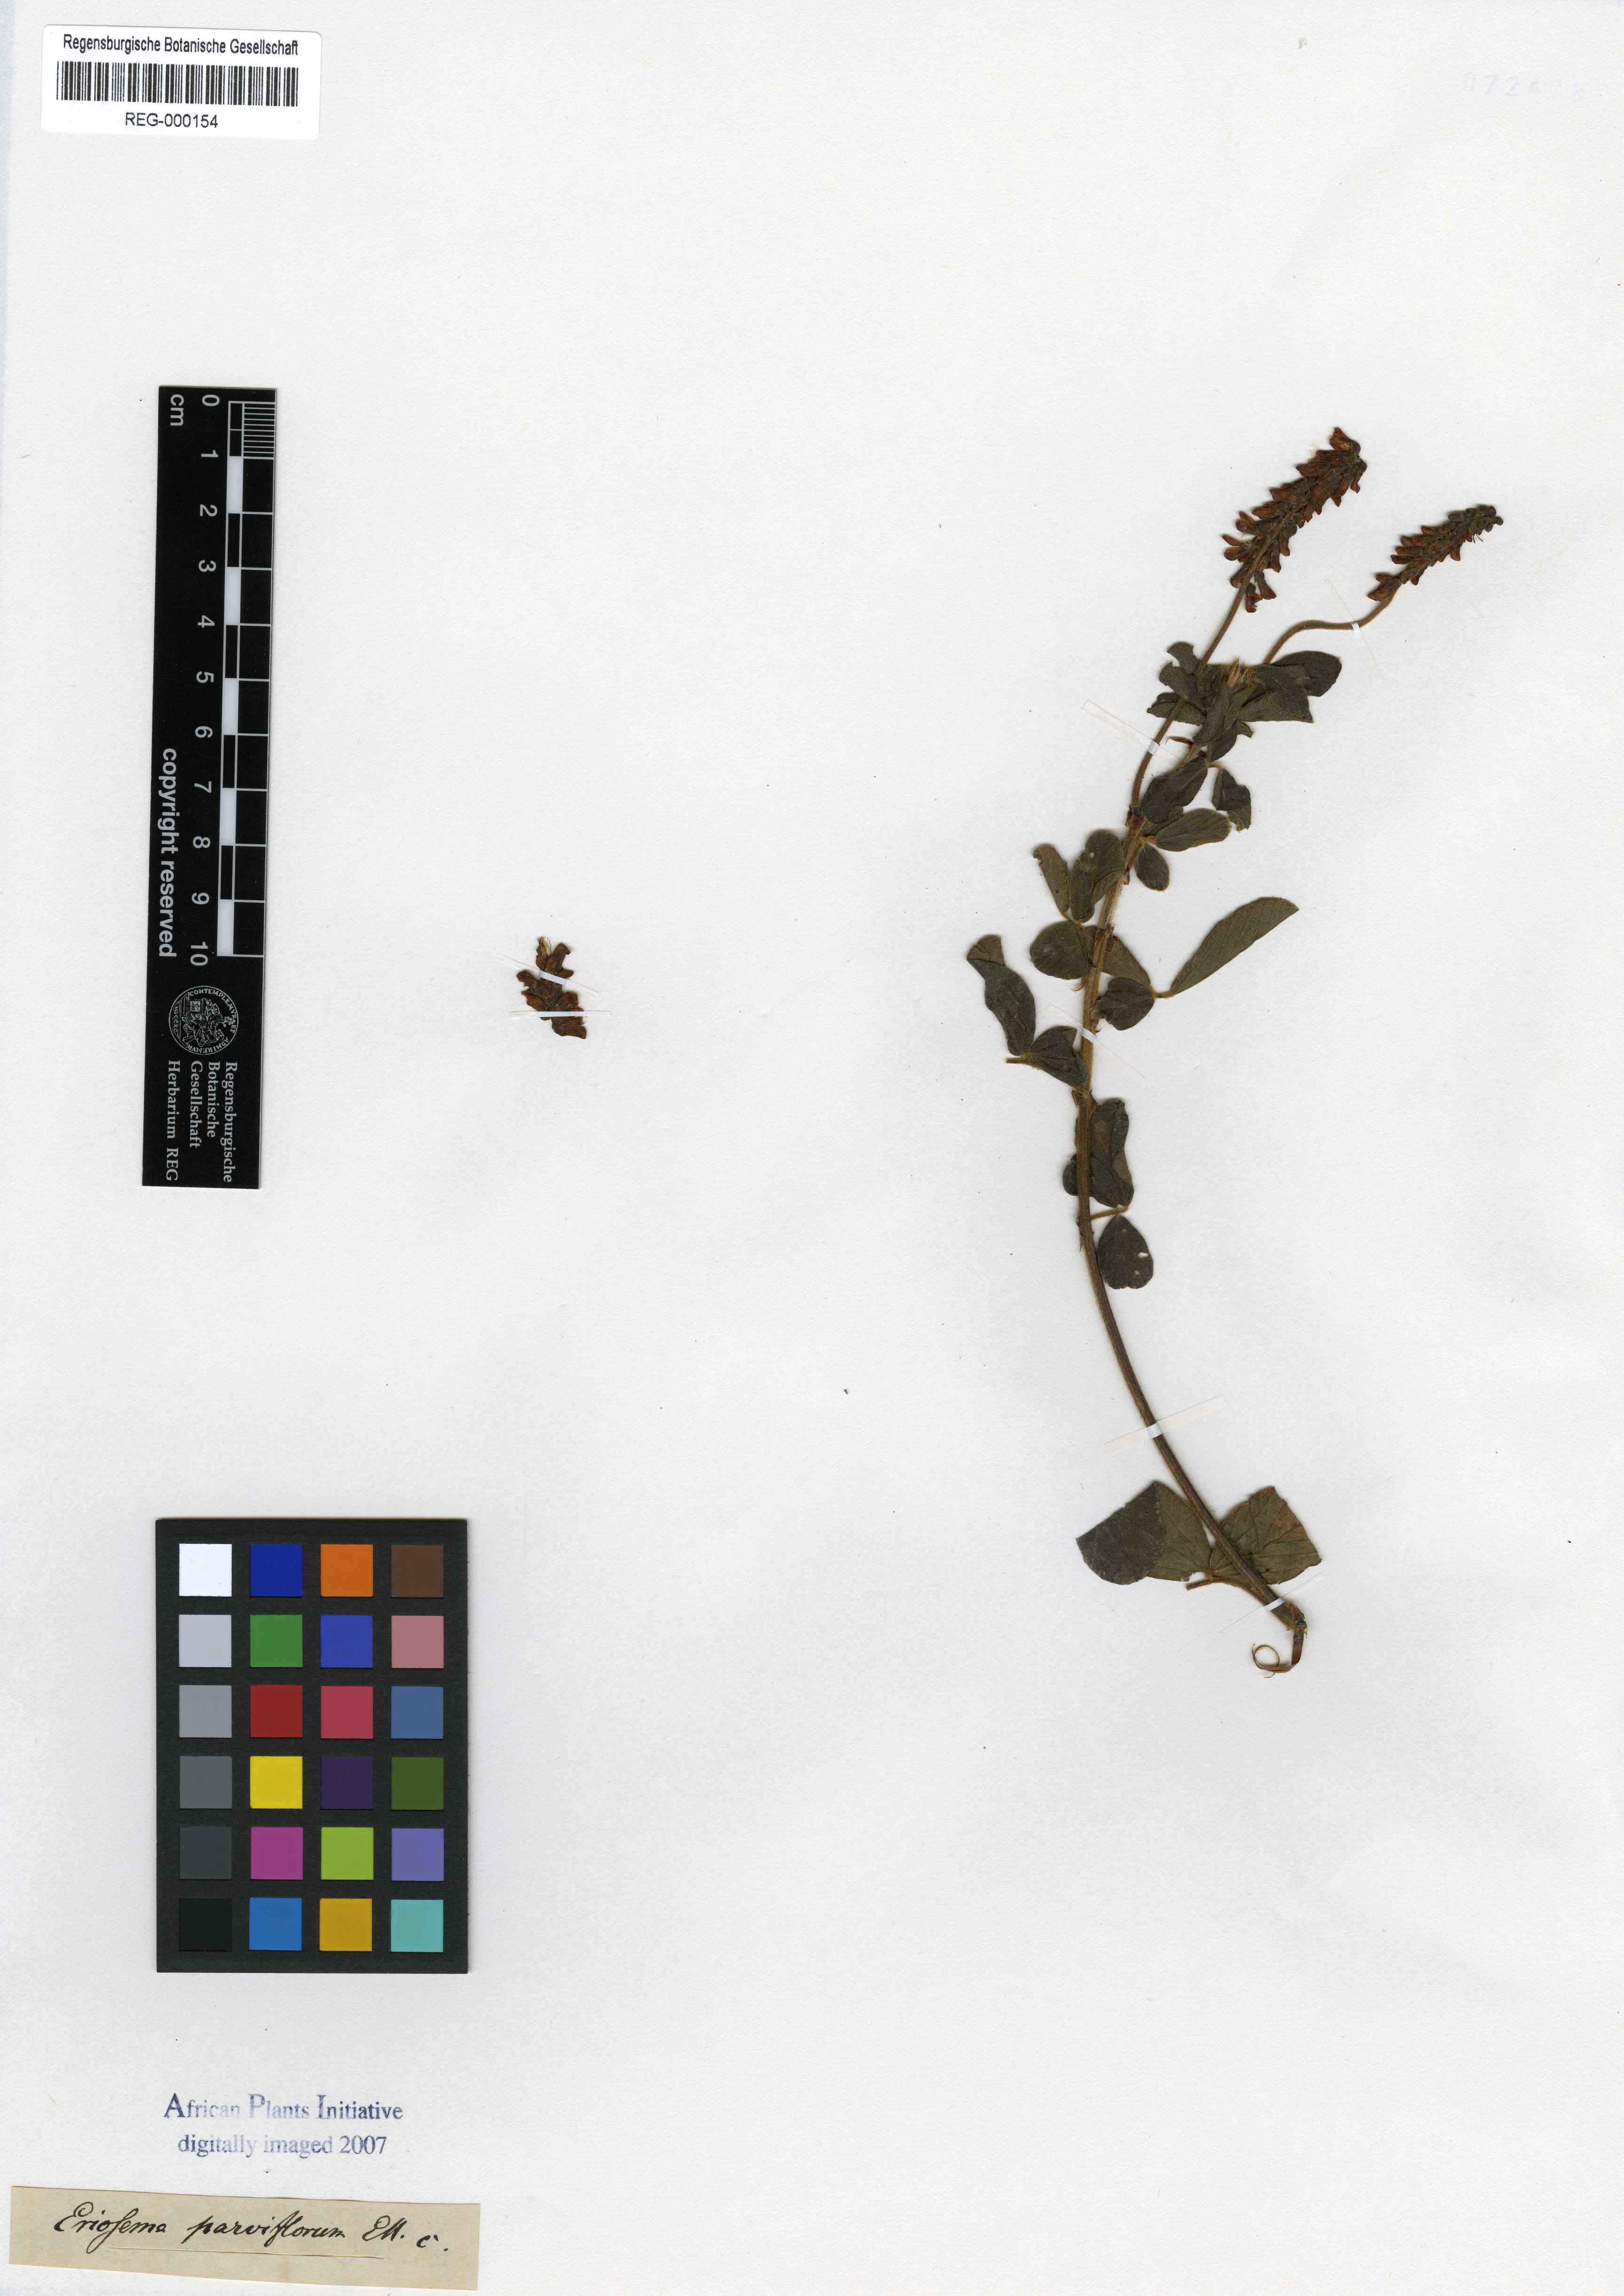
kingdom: Plantae
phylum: Tracheophyta
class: Magnoliopsida
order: Fabales
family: Fabaceae
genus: Eriosema
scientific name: Eriosema parviflorum
